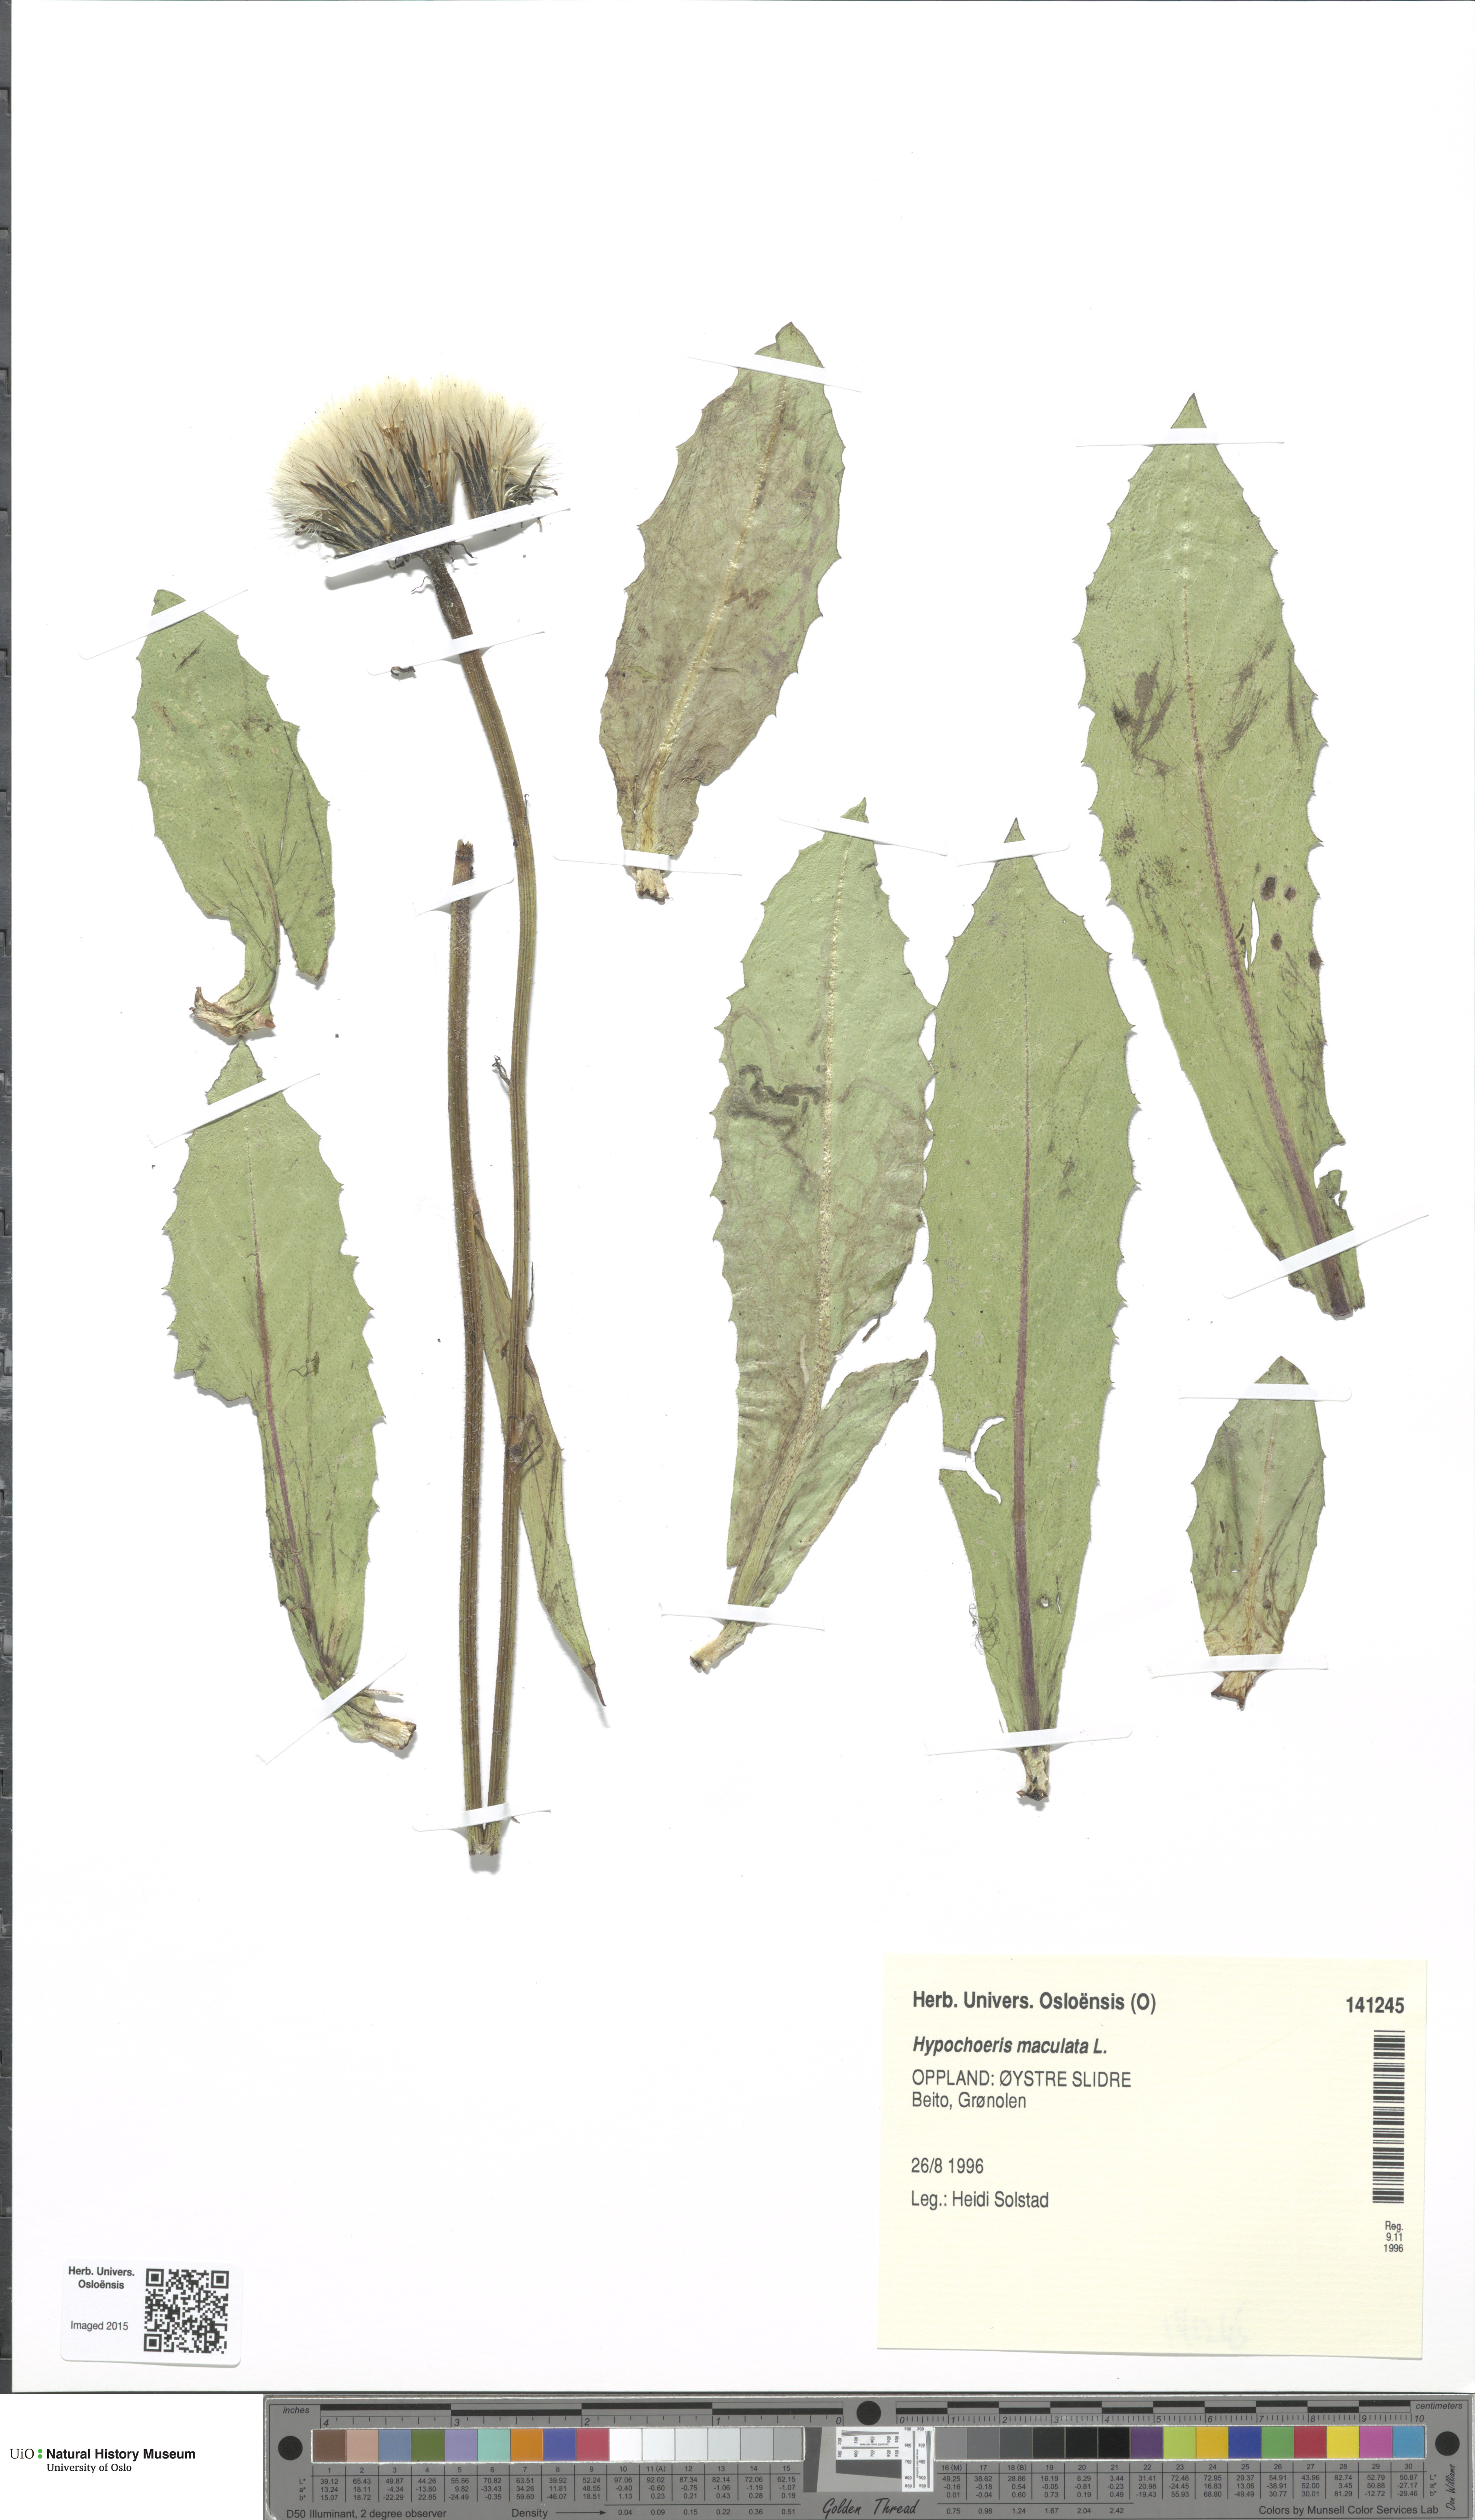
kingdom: Plantae
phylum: Tracheophyta
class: Magnoliopsida
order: Asterales
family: Asteraceae
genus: Trommsdorffia
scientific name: Trommsdorffia maculata
